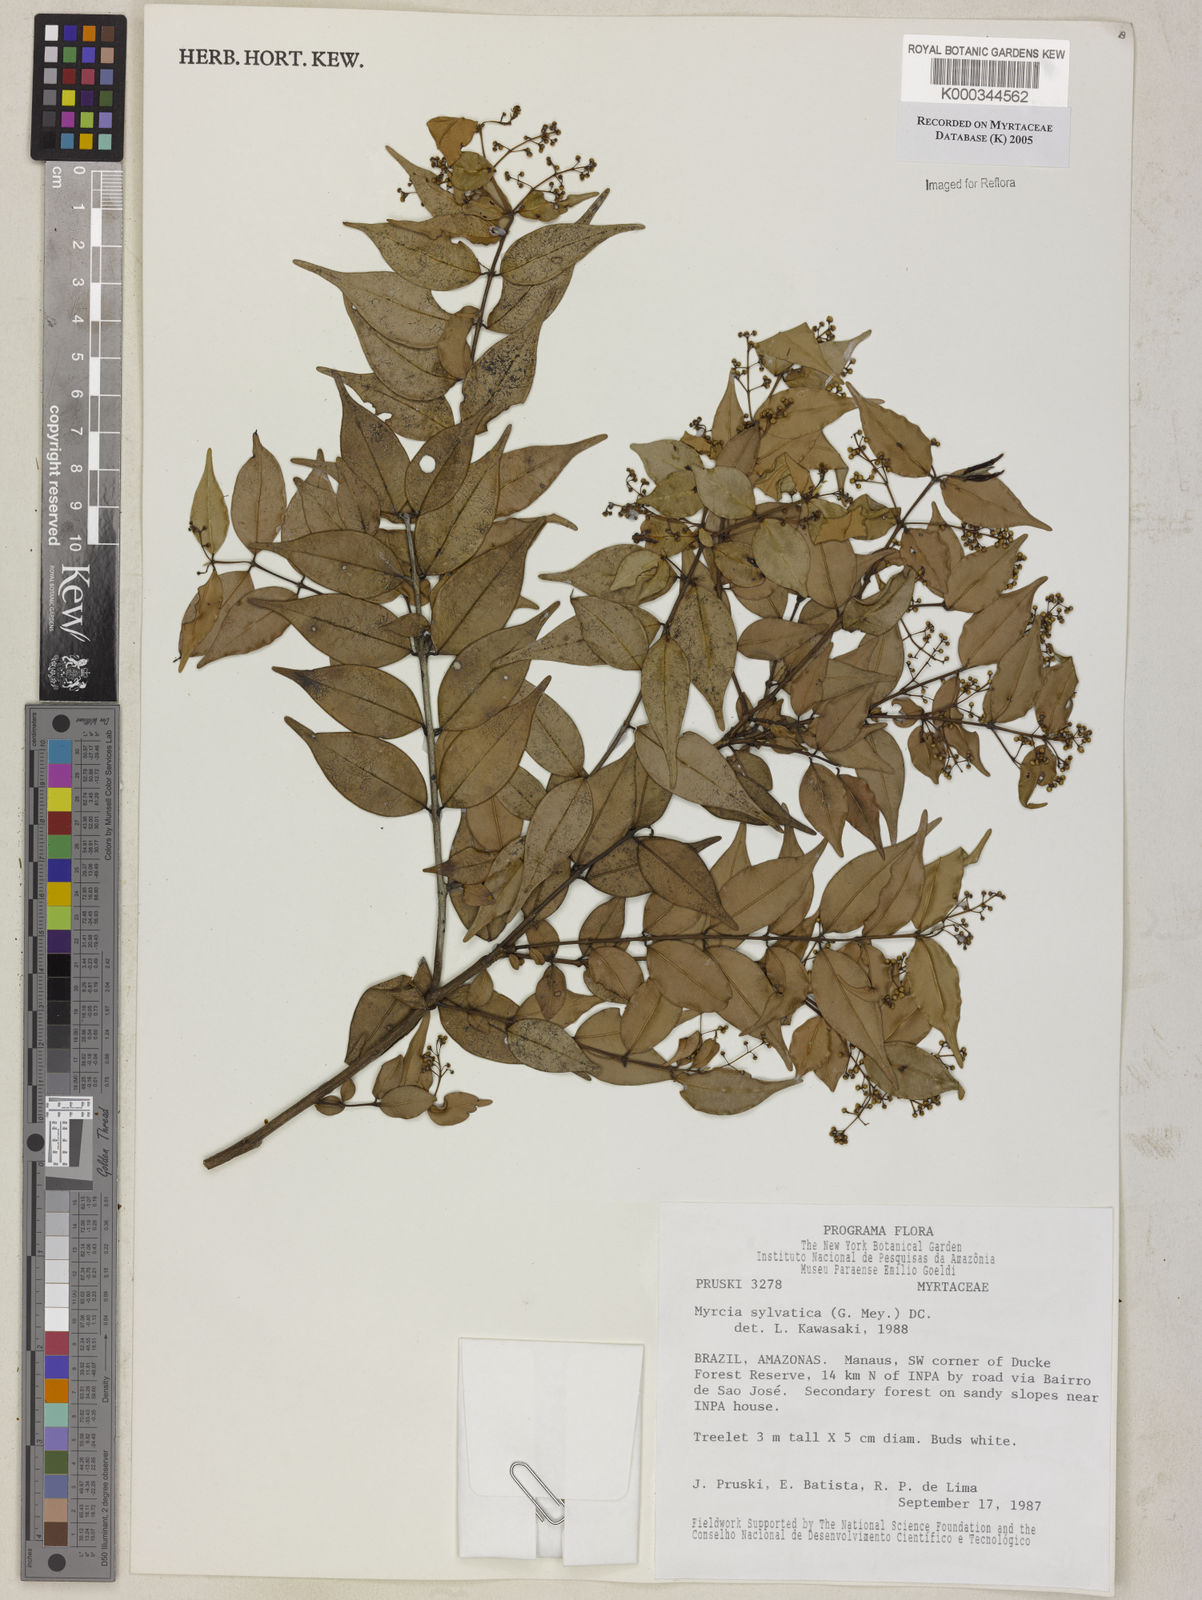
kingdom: Plantae
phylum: Tracheophyta
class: Magnoliopsida
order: Myrtales
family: Myrtaceae
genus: Myrcia
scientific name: Myrcia sylvatica
